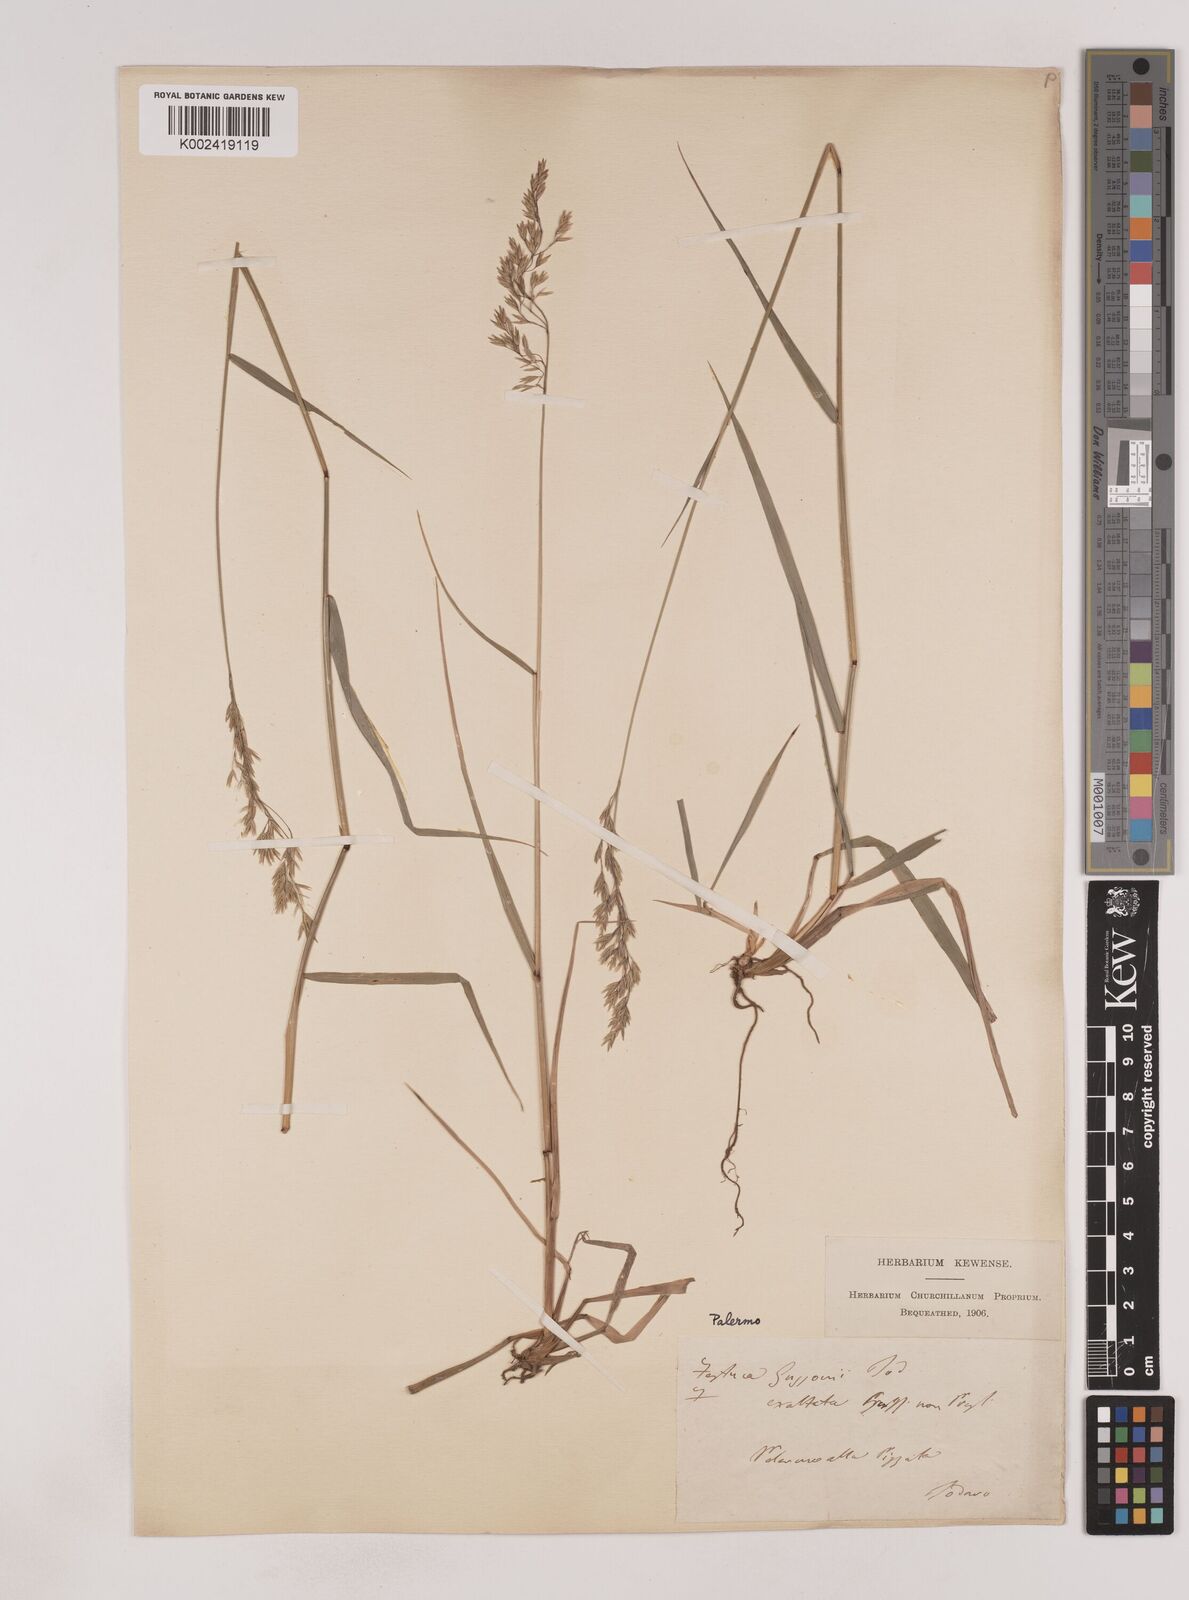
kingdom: Plantae
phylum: Tracheophyta
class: Liliopsida
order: Poales
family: Poaceae
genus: Festuca
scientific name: Festuca drymeja
